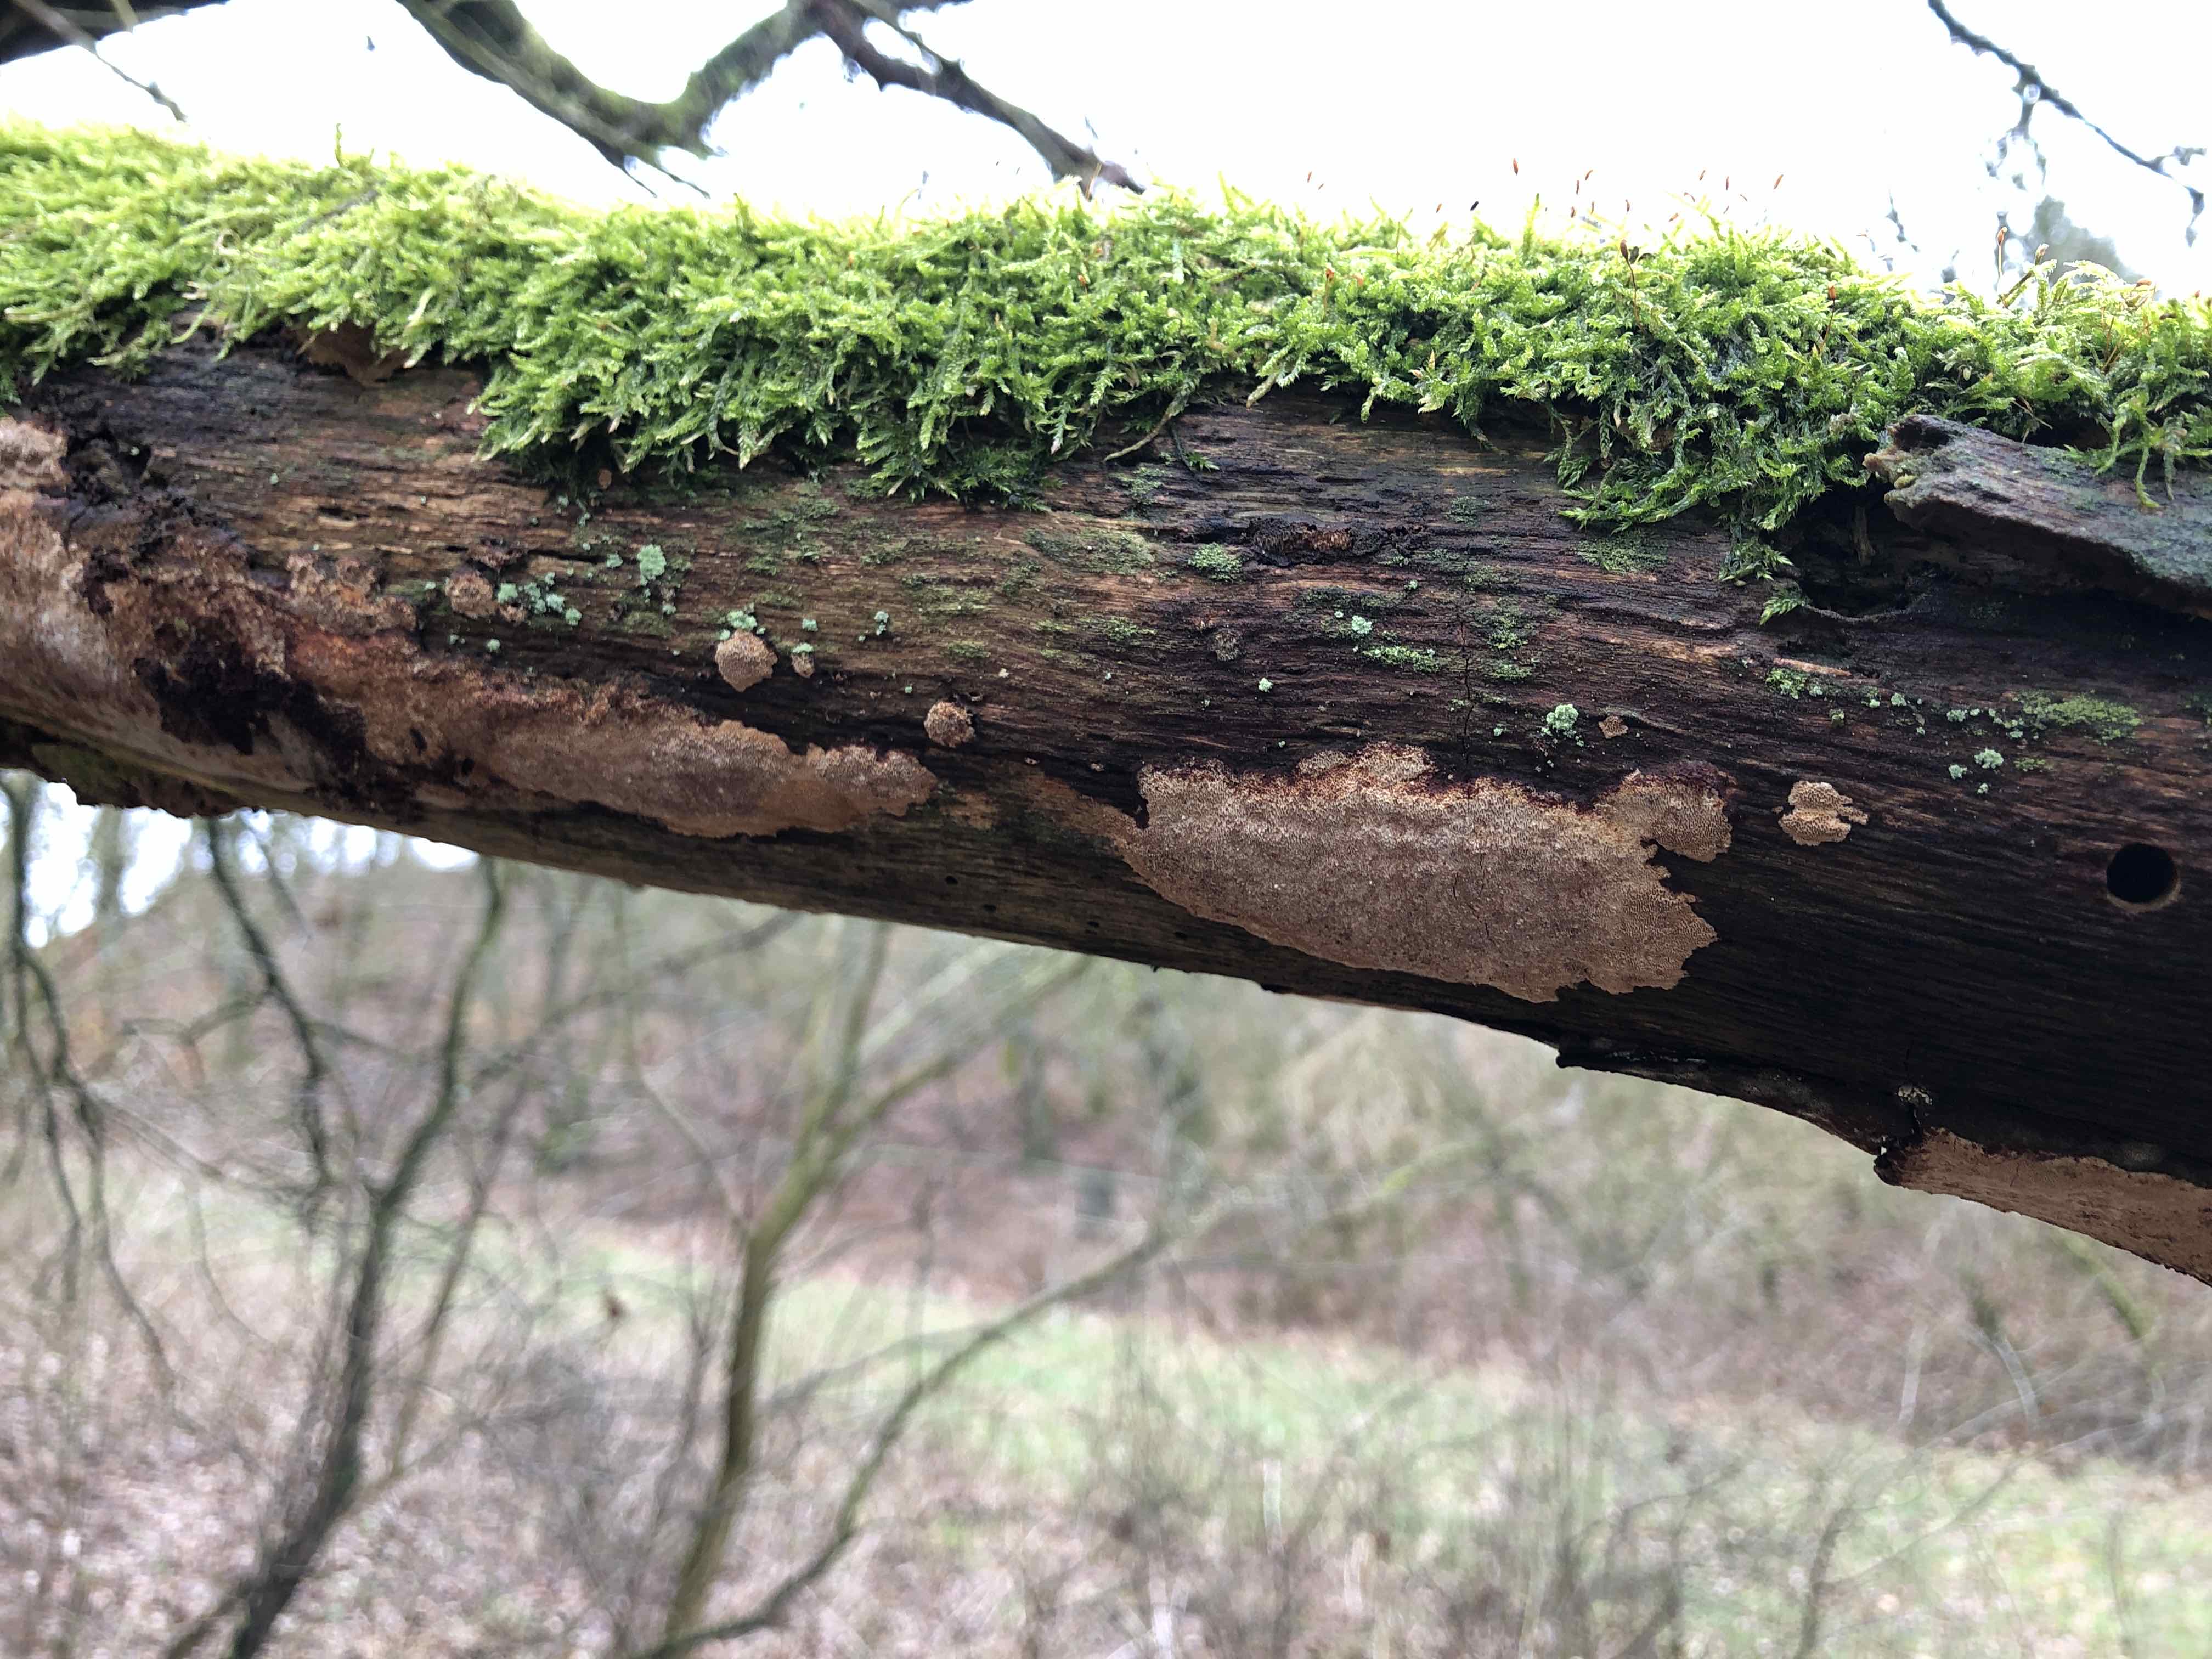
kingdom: Fungi
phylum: Basidiomycota
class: Agaricomycetes
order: Hymenochaetales
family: Hymenochaetaceae
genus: Fuscoporia
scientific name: Fuscoporia ferrea
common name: skorpe-ildporesvamp
